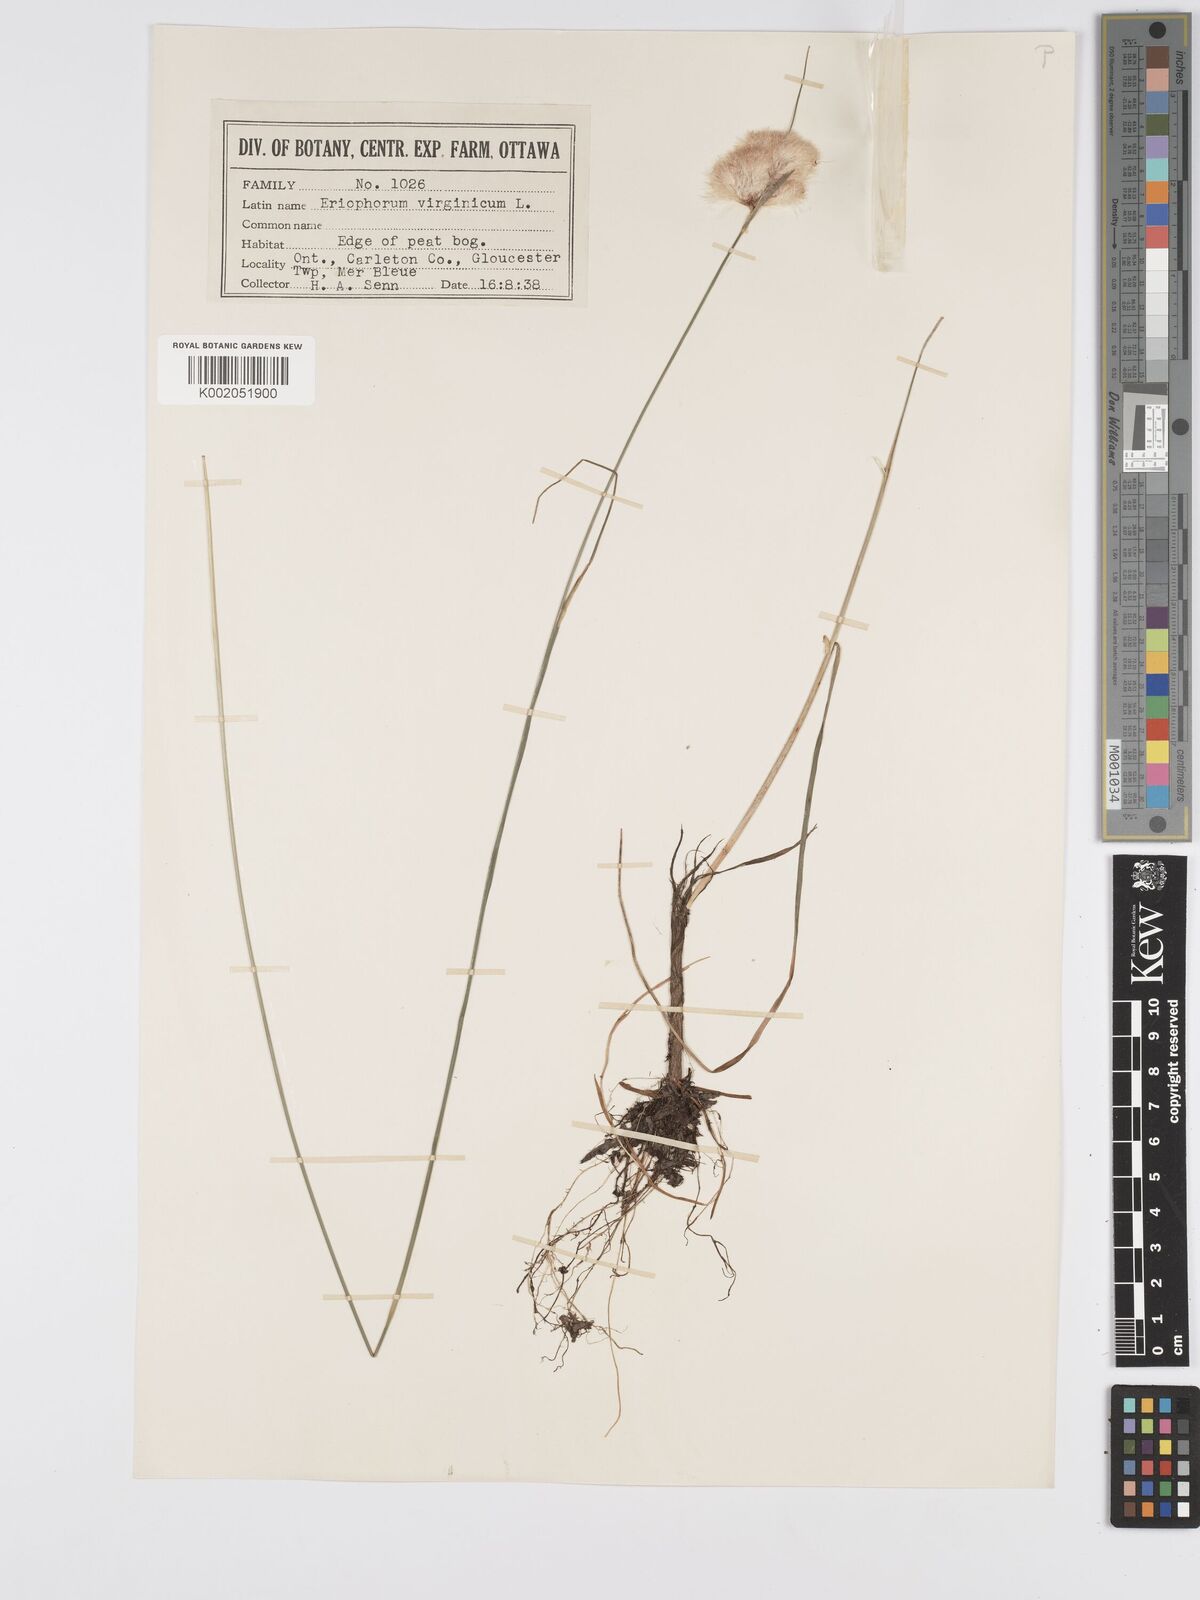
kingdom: Plantae
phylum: Tracheophyta
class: Liliopsida
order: Poales
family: Cyperaceae
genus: Eriophorum
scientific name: Eriophorum virginicum
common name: Tawny cottongrass
